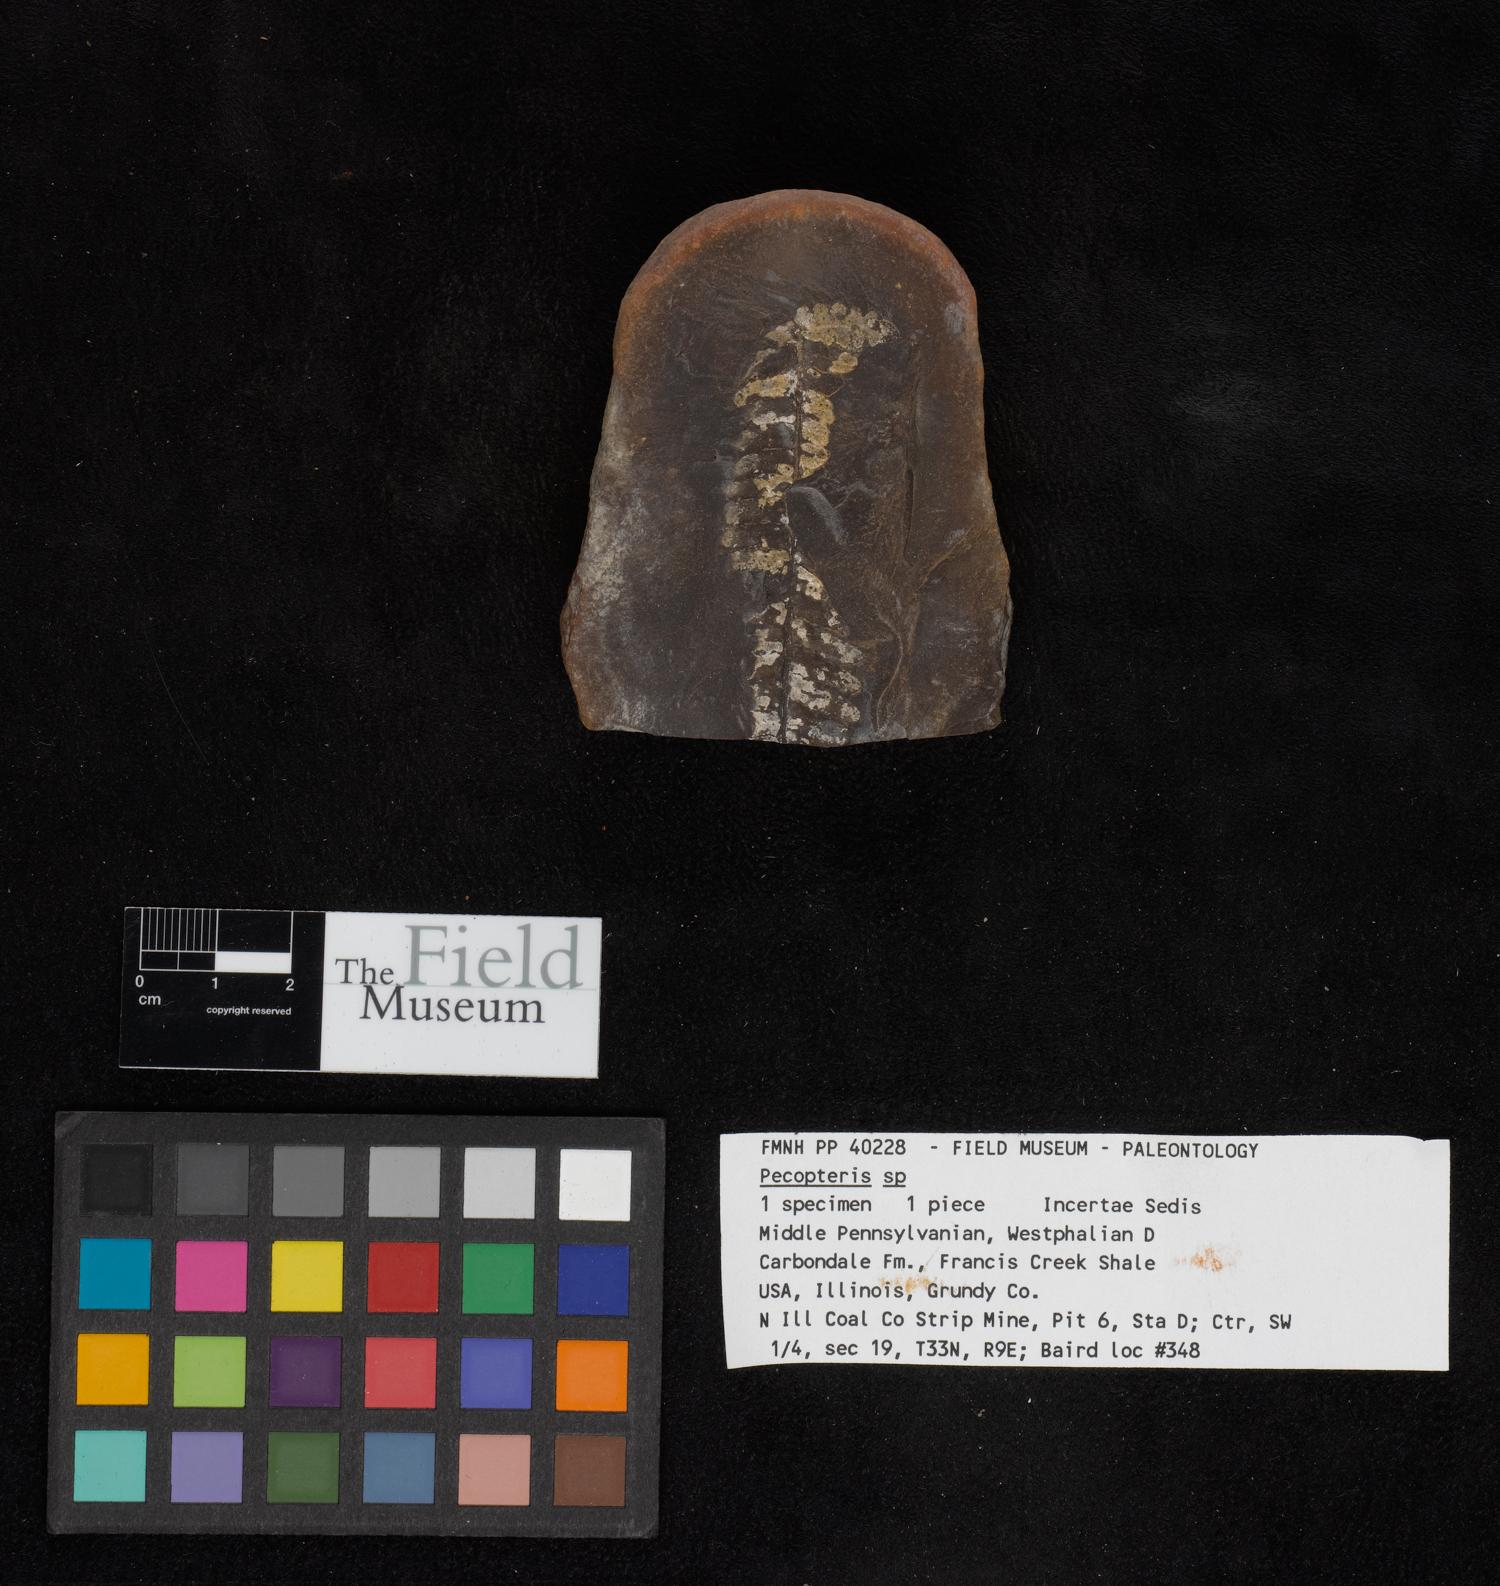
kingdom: Plantae
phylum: Tracheophyta
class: Polypodiopsida
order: Marattiales
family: Asterothecaceae
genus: Pecopteris
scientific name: Pecopteris
